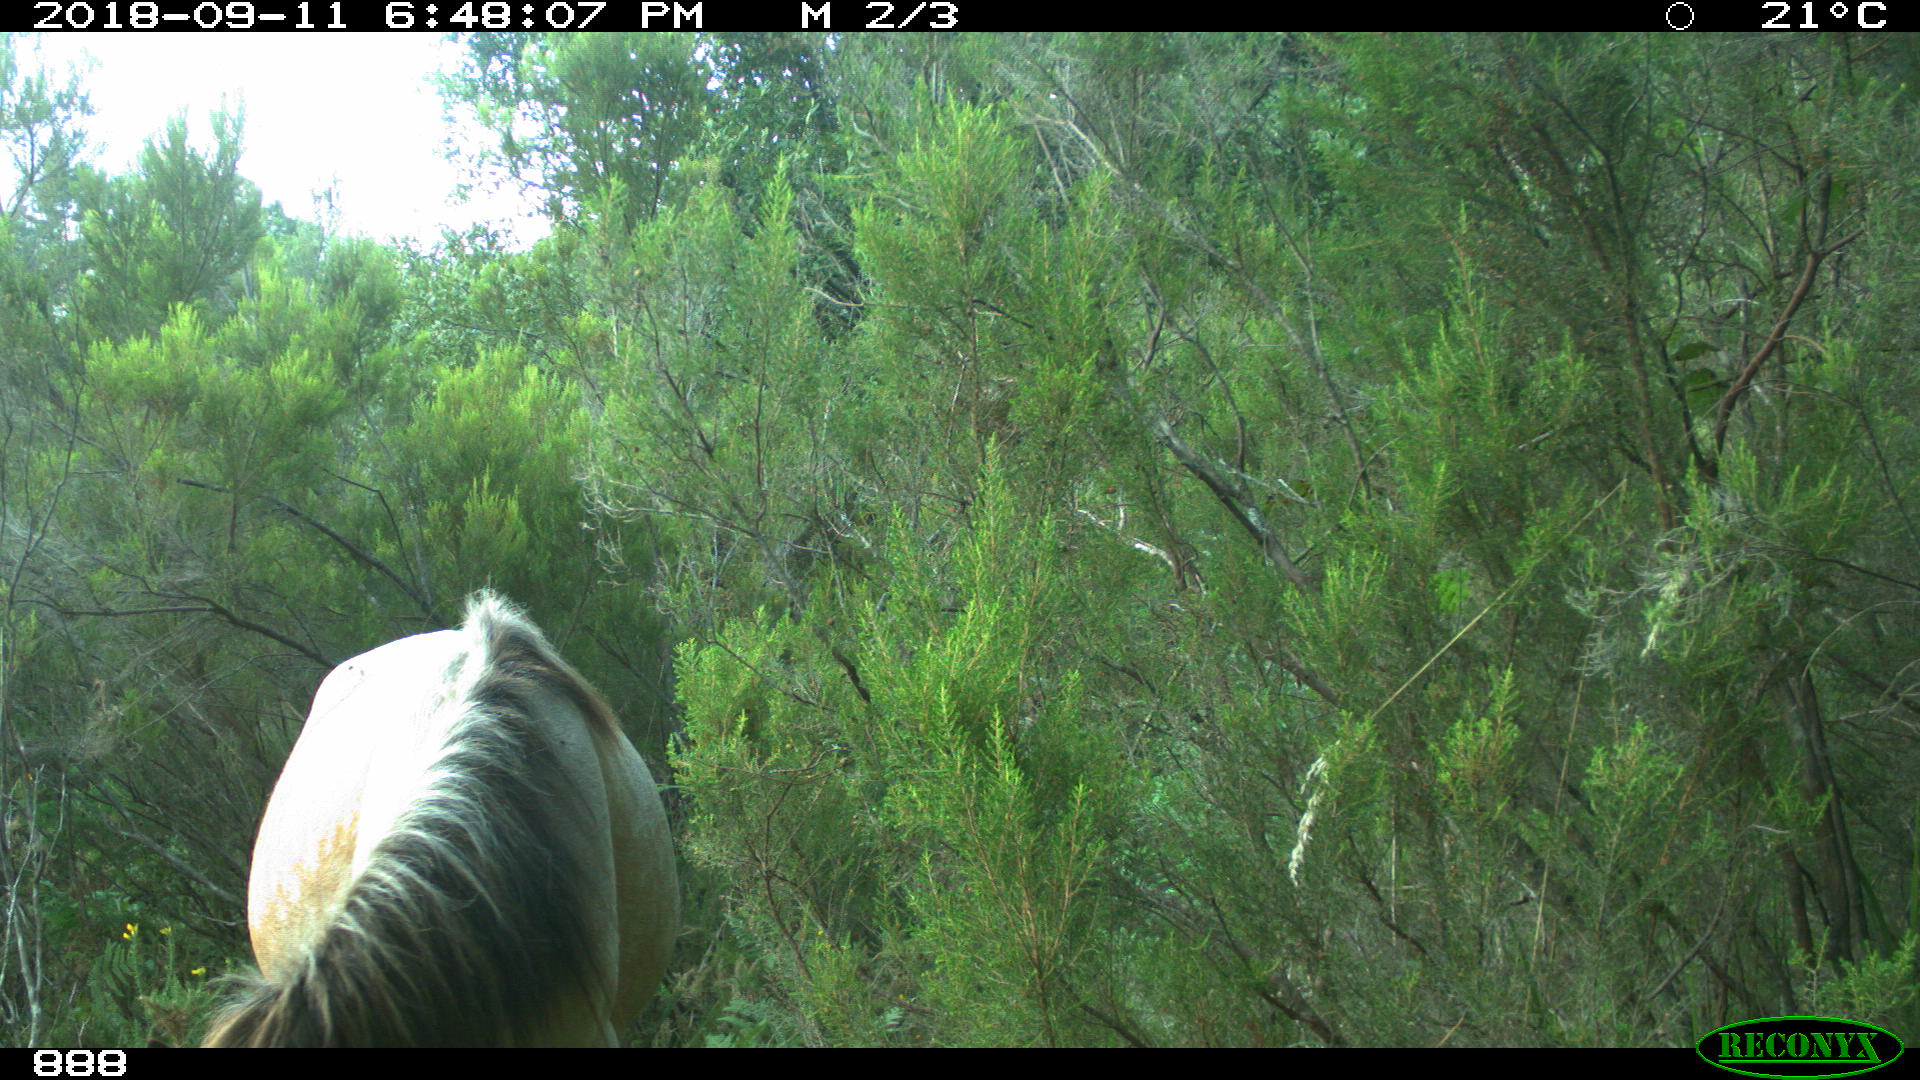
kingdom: Animalia
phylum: Chordata
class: Mammalia
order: Perissodactyla
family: Equidae
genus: Equus
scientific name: Equus caballus
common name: Horse
